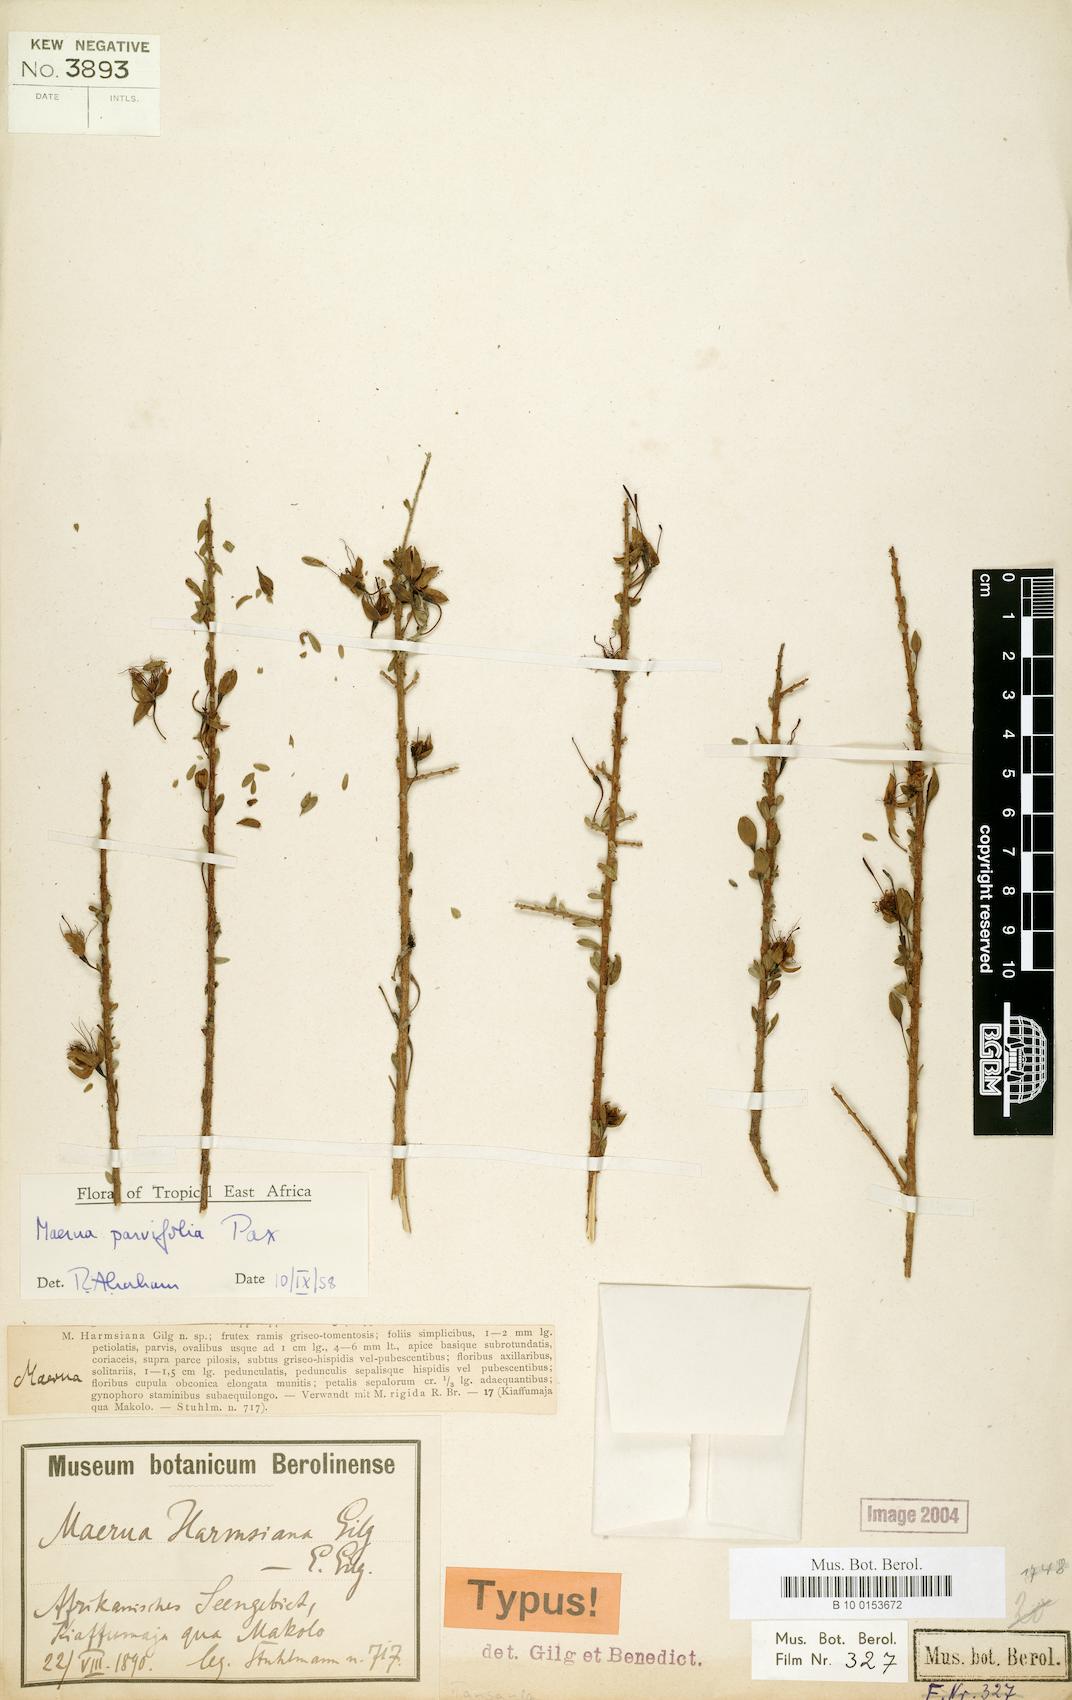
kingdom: Plantae
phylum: Tracheophyta
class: Magnoliopsida
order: Brassicales
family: Capparaceae
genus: Maerua
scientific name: Maerua parvifolia
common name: Dwarf bush-cherry
